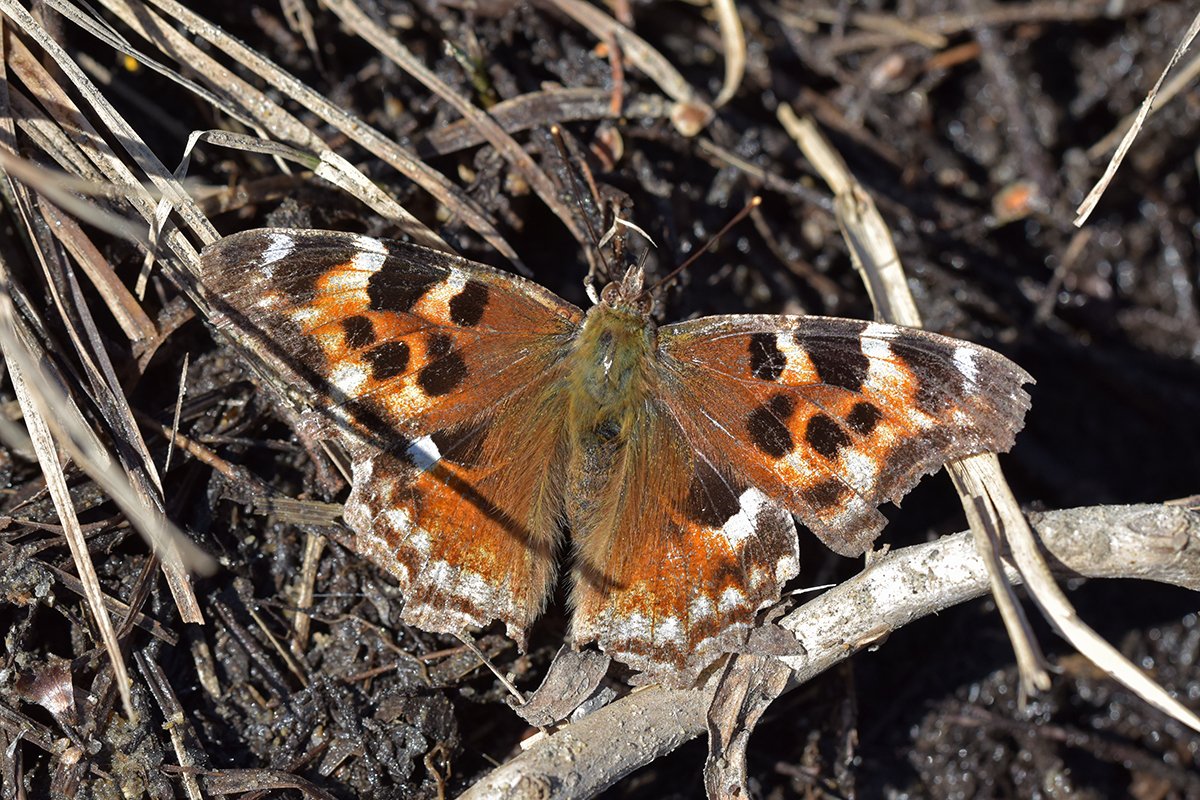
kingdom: Animalia
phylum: Arthropoda
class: Insecta
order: Lepidoptera
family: Nymphalidae
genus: Polygonia
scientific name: Polygonia vaualbum
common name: Compton Tortoiseshell
